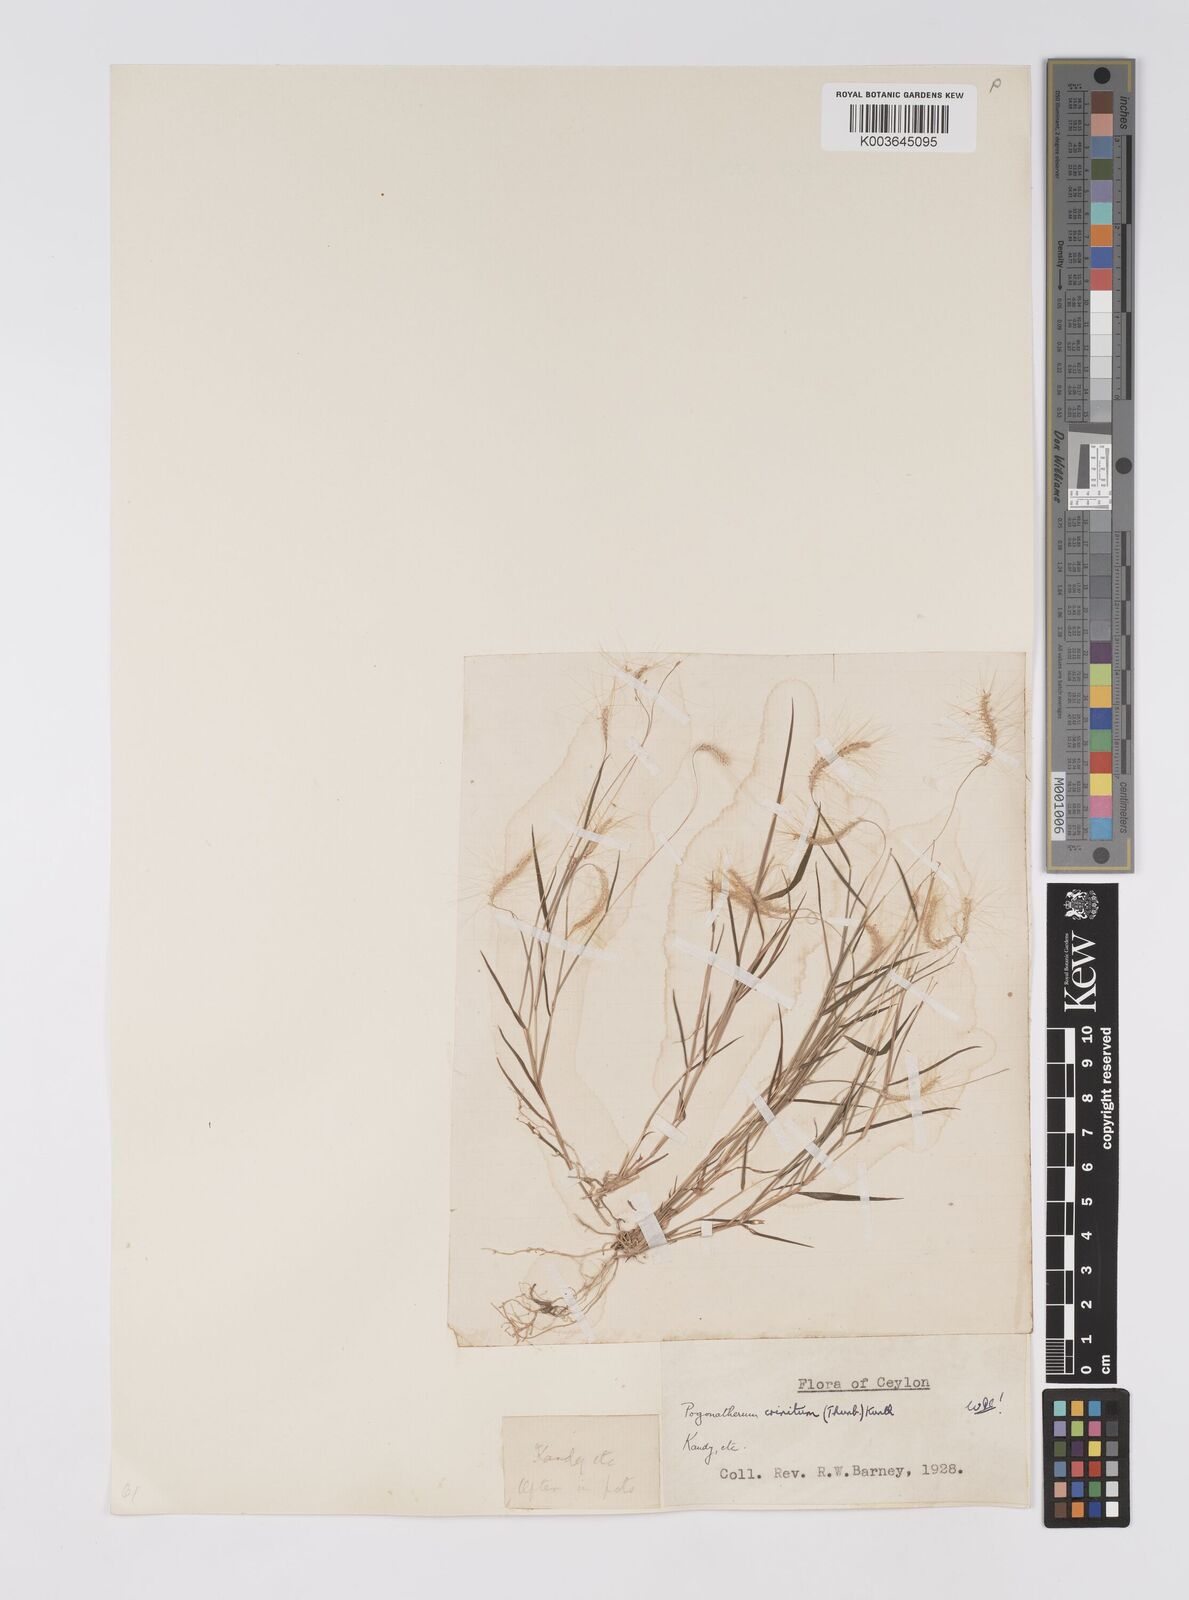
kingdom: Plantae
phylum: Tracheophyta
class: Liliopsida
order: Poales
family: Poaceae
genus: Pogonatherum
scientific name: Pogonatherum crinitum
